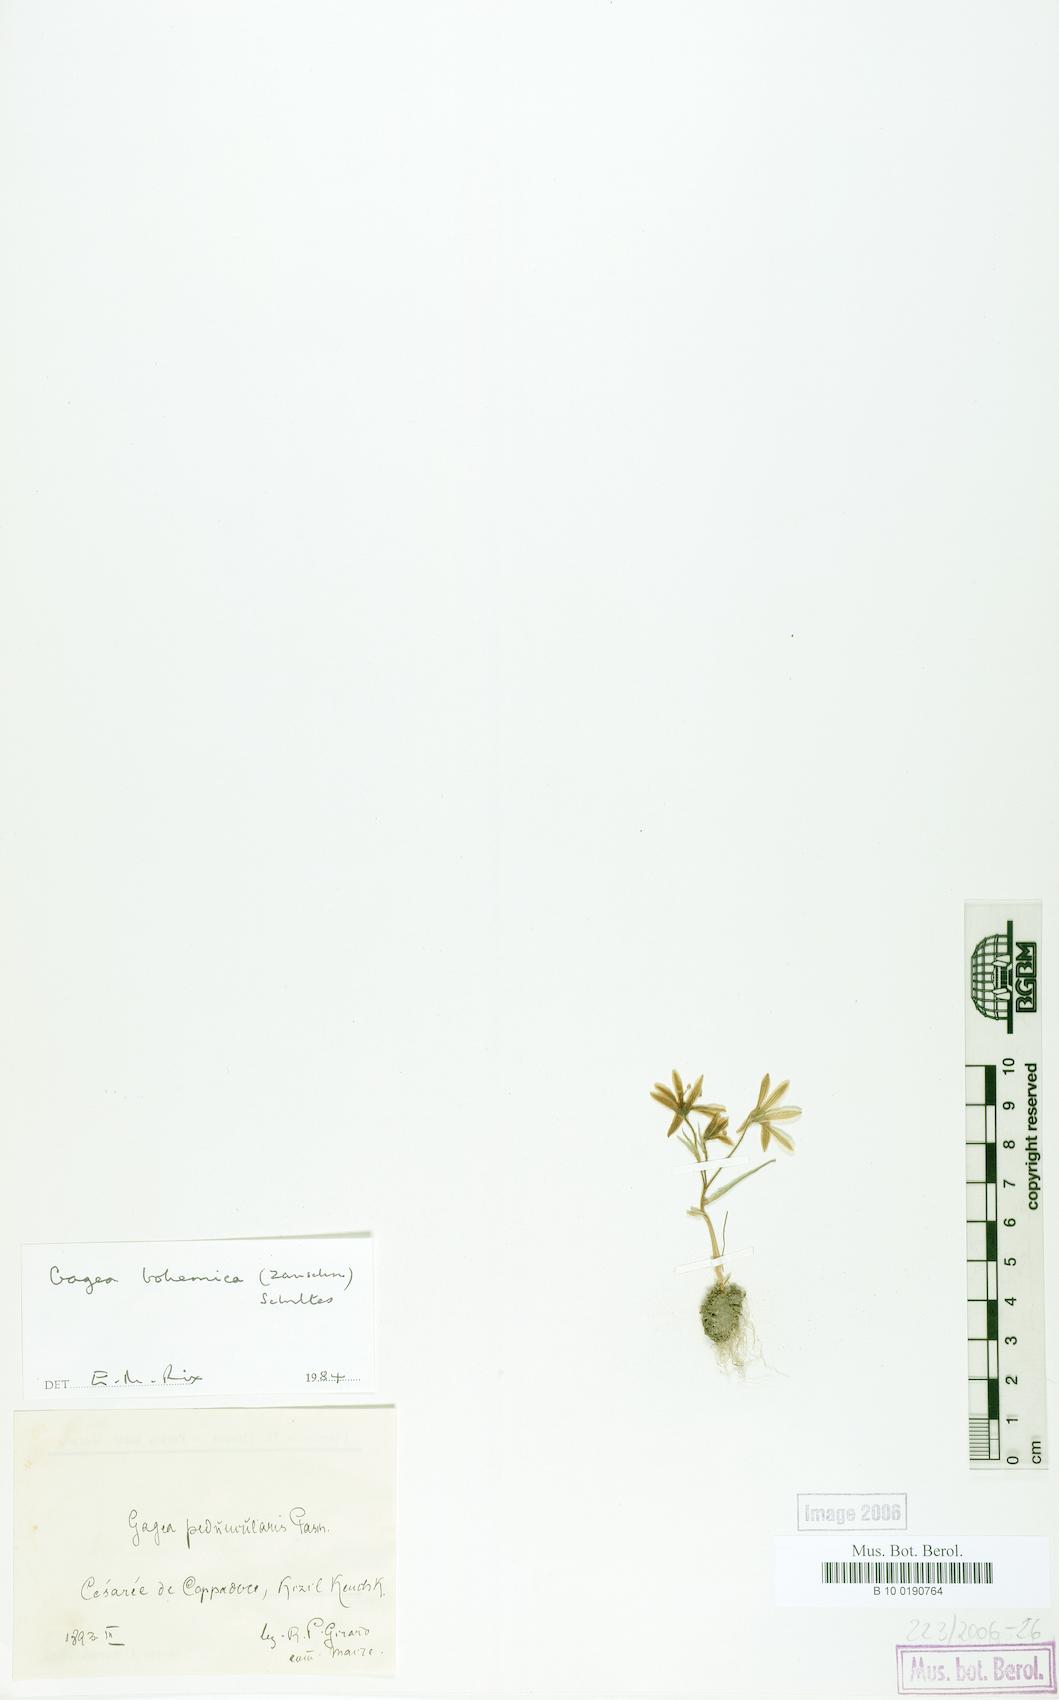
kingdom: Plantae
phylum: Tracheophyta
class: Liliopsida
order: Liliales
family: Liliaceae
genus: Gagea
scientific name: Gagea bohemica
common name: Early star-of-bethlehem
